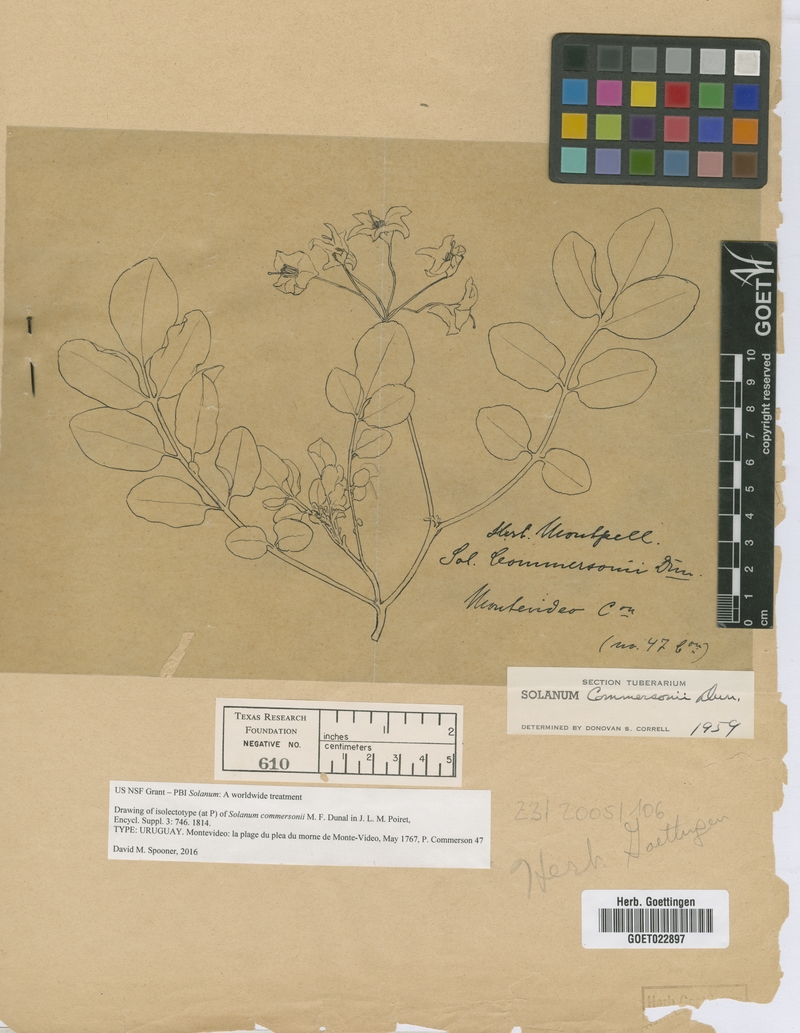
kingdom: Plantae
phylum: Tracheophyta
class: Magnoliopsida
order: Solanales
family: Solanaceae
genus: Solanum
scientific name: Solanum commersonii
